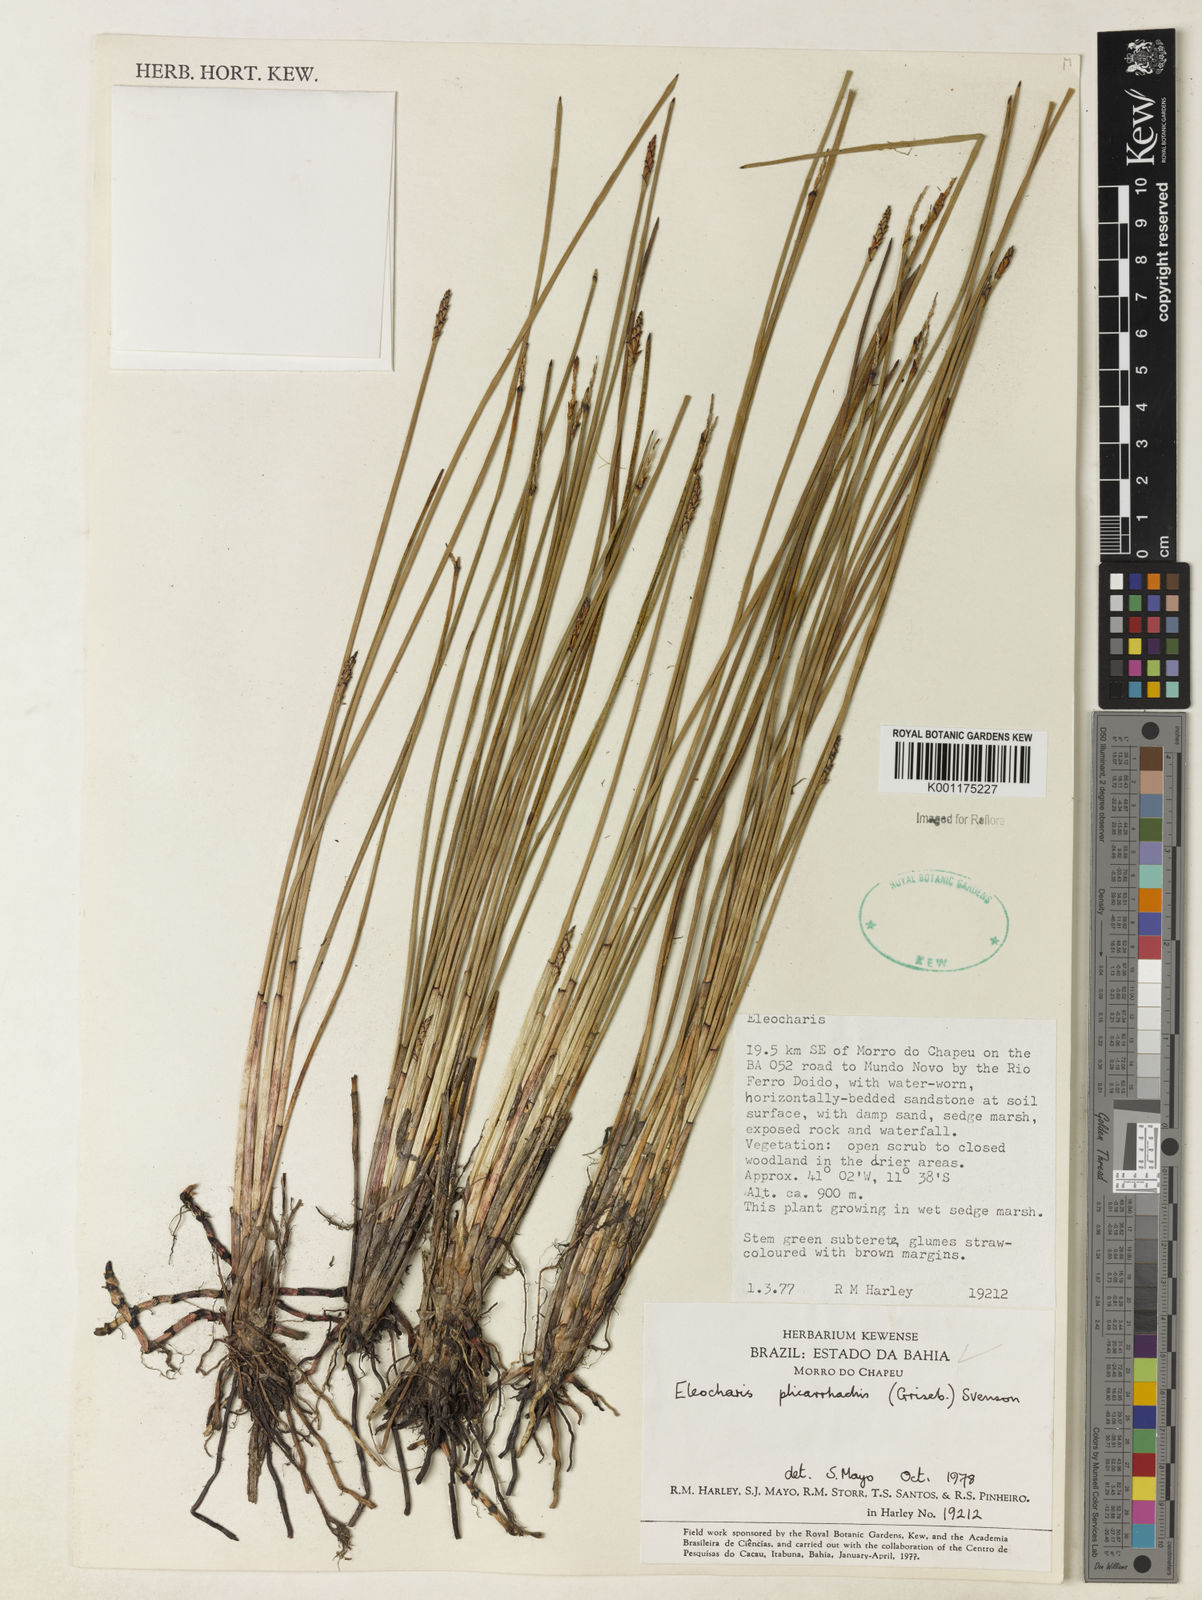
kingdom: Plantae
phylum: Tracheophyta
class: Liliopsida
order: Poales
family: Cyperaceae
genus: Eleocharis
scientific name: Eleocharis plicarhachis
